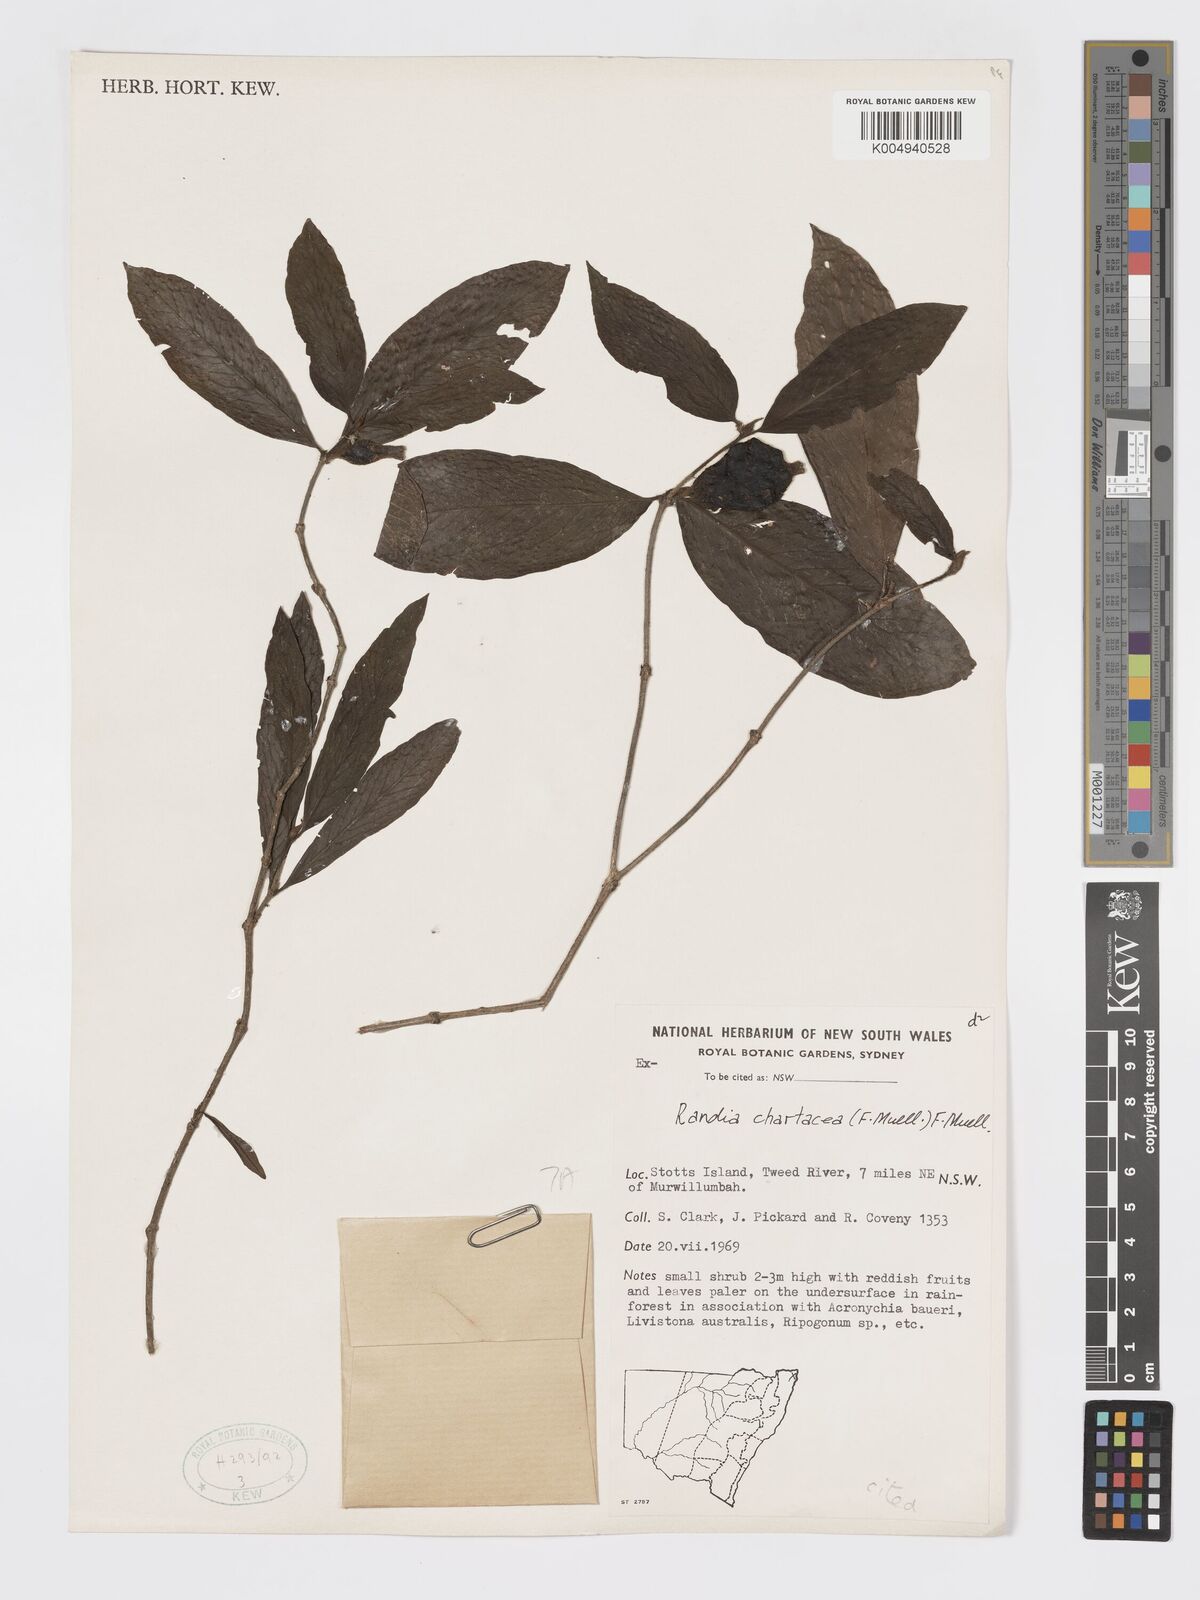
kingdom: Plantae
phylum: Tracheophyta
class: Magnoliopsida
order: Gentianales
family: Rubiaceae
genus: Atractocarpus
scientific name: Atractocarpus chartaceus
